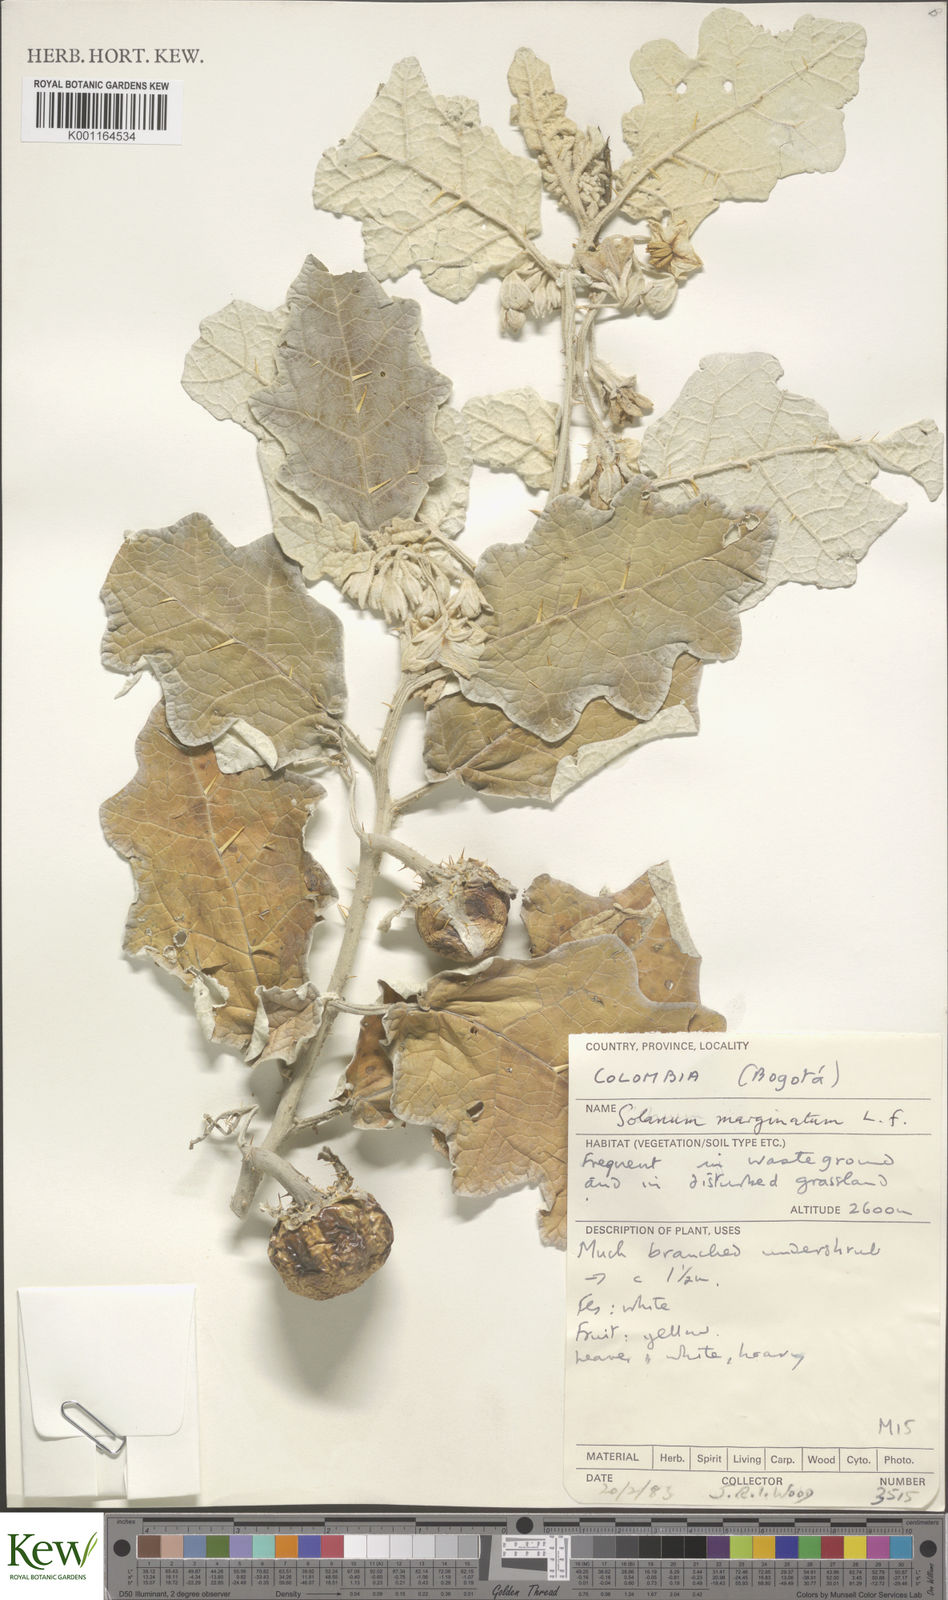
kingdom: Plantae
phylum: Tracheophyta
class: Magnoliopsida
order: Solanales
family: Solanaceae
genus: Solanum
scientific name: Solanum marginatum
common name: Purple african nightshade
